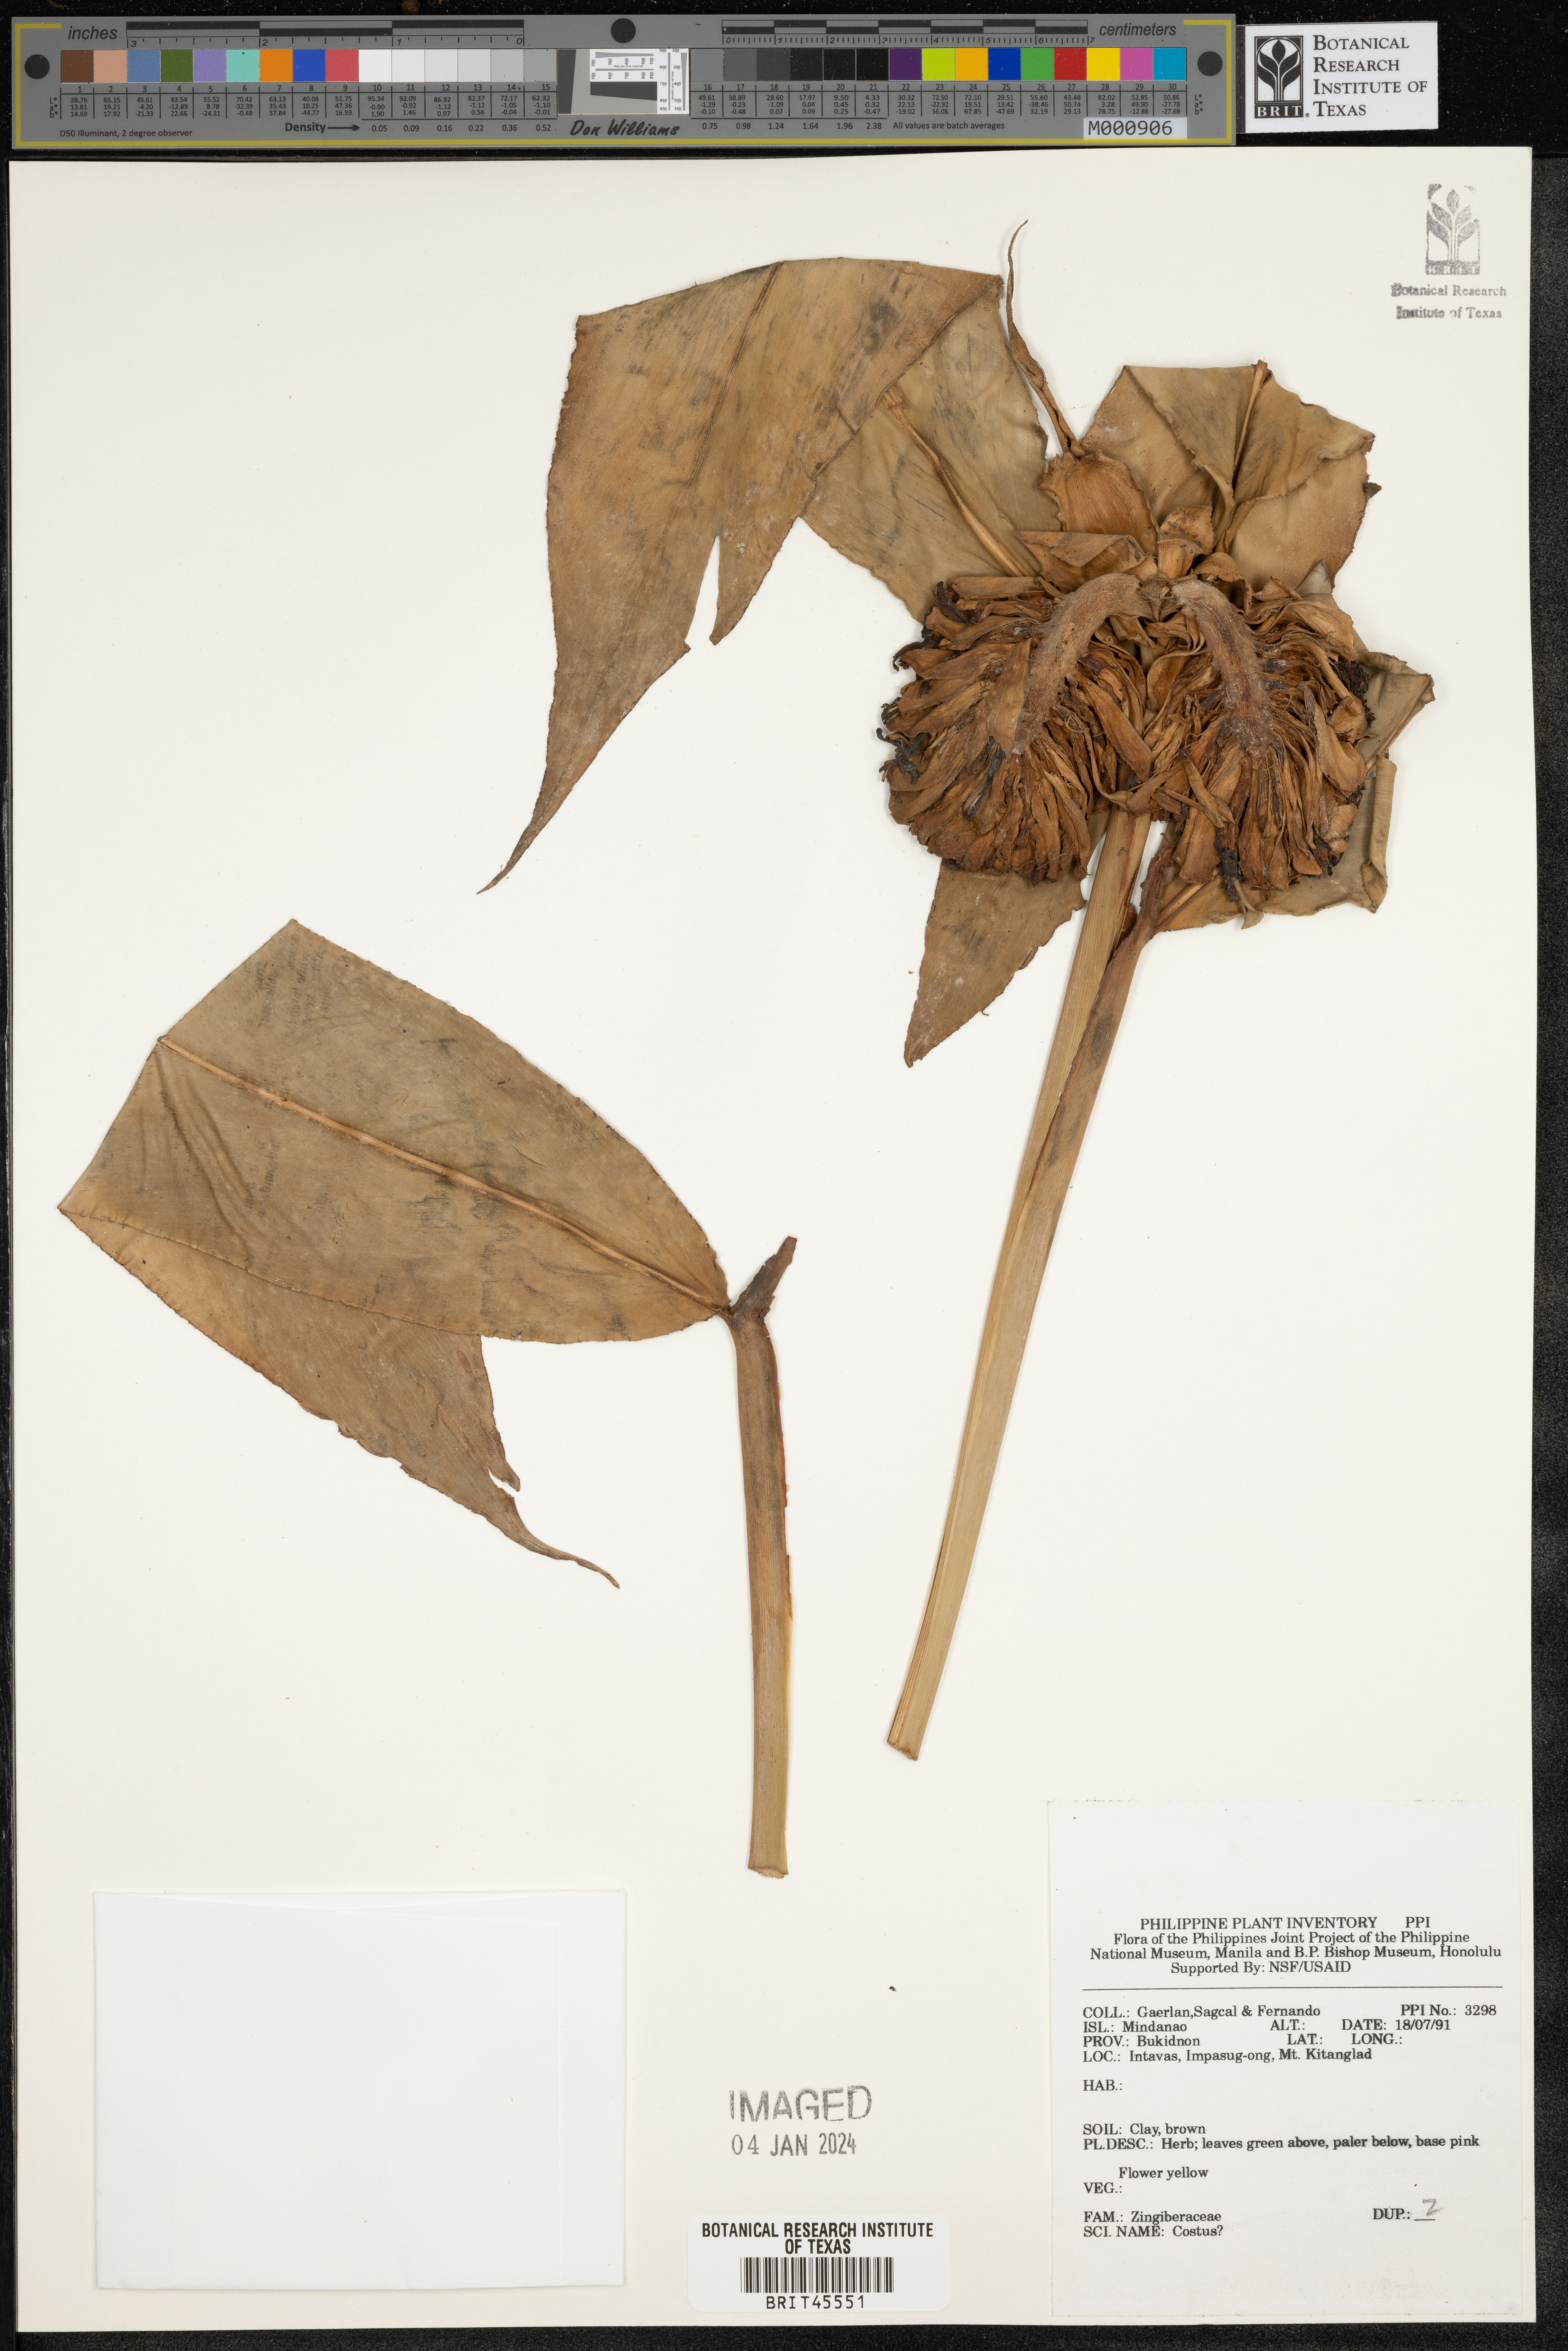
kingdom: Plantae
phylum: Tracheophyta
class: Liliopsida
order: Zingiberales
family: Costaceae
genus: Costus
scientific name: Costus
